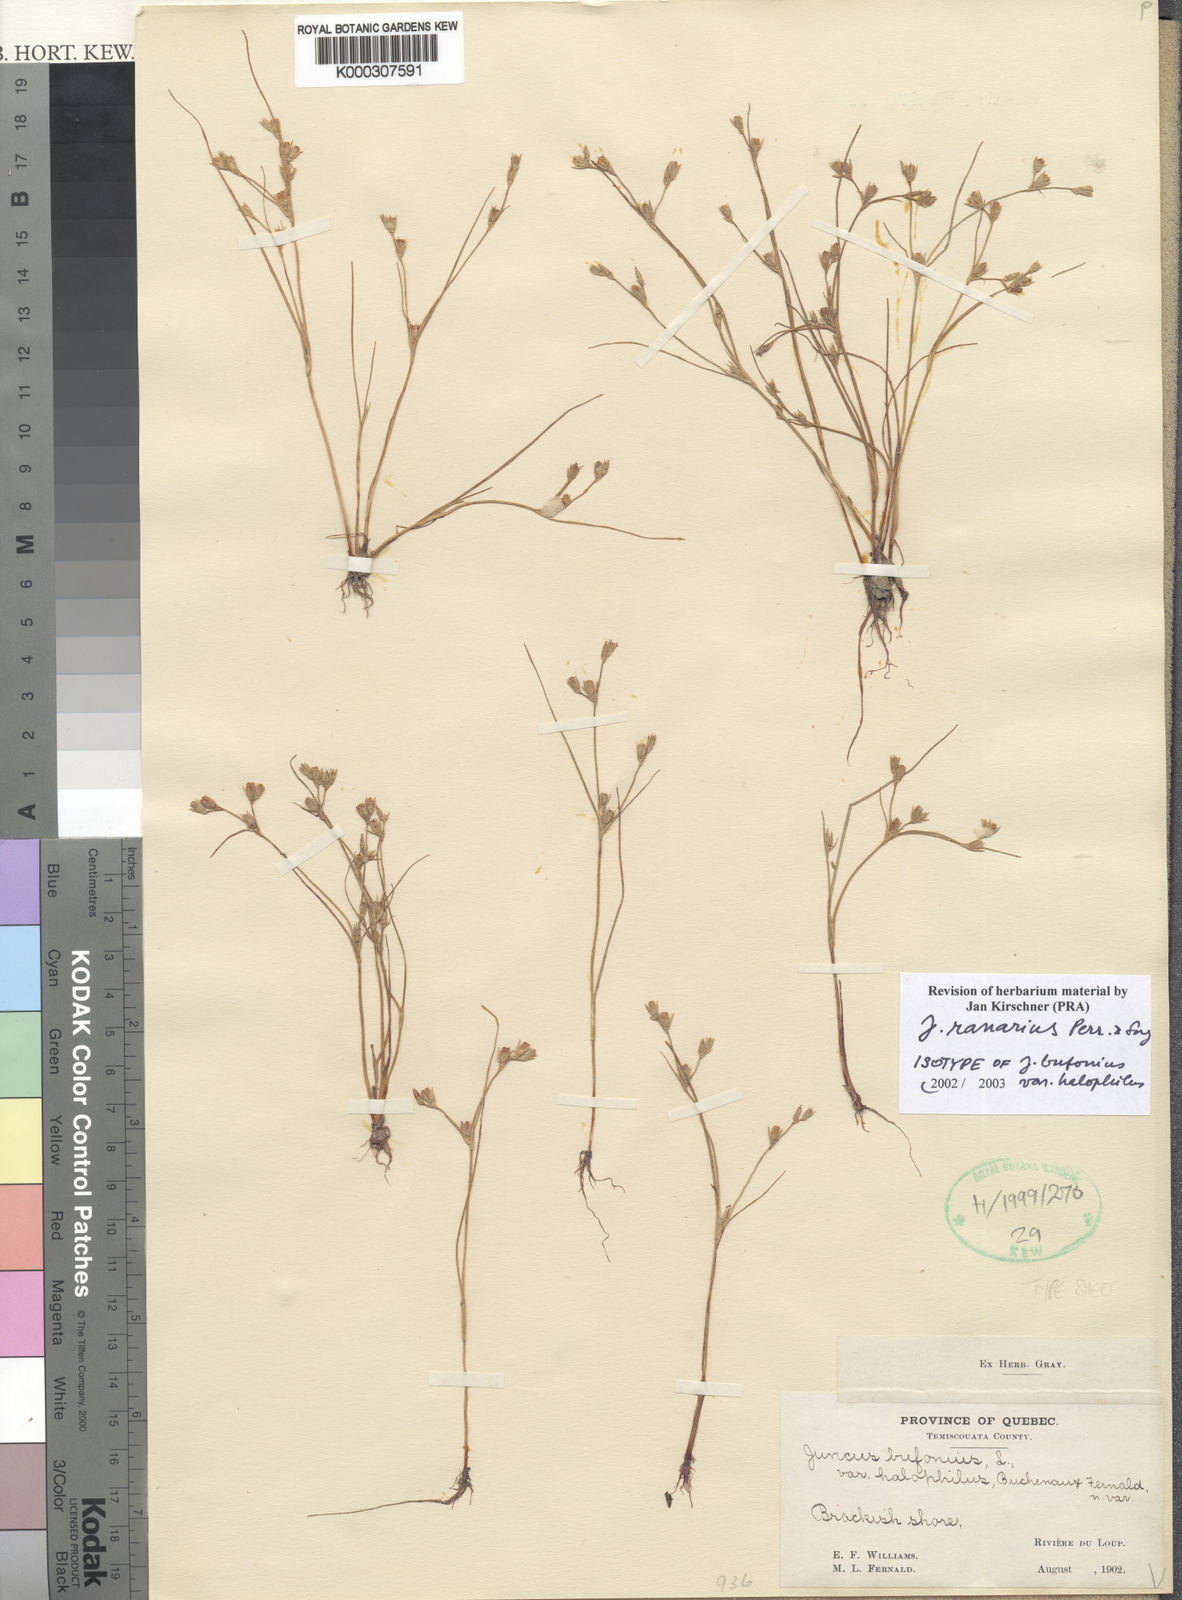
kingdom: Plantae
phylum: Tracheophyta
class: Liliopsida
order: Poales
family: Juncaceae
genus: Juncus
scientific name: Juncus bufonius
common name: Toad rush
